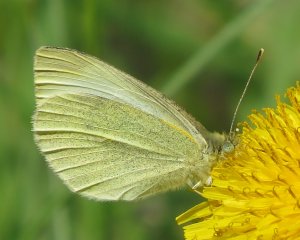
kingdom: Animalia
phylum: Arthropoda
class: Insecta
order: Lepidoptera
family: Pieridae
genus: Pieris
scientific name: Pieris rapae
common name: Cabbage White
